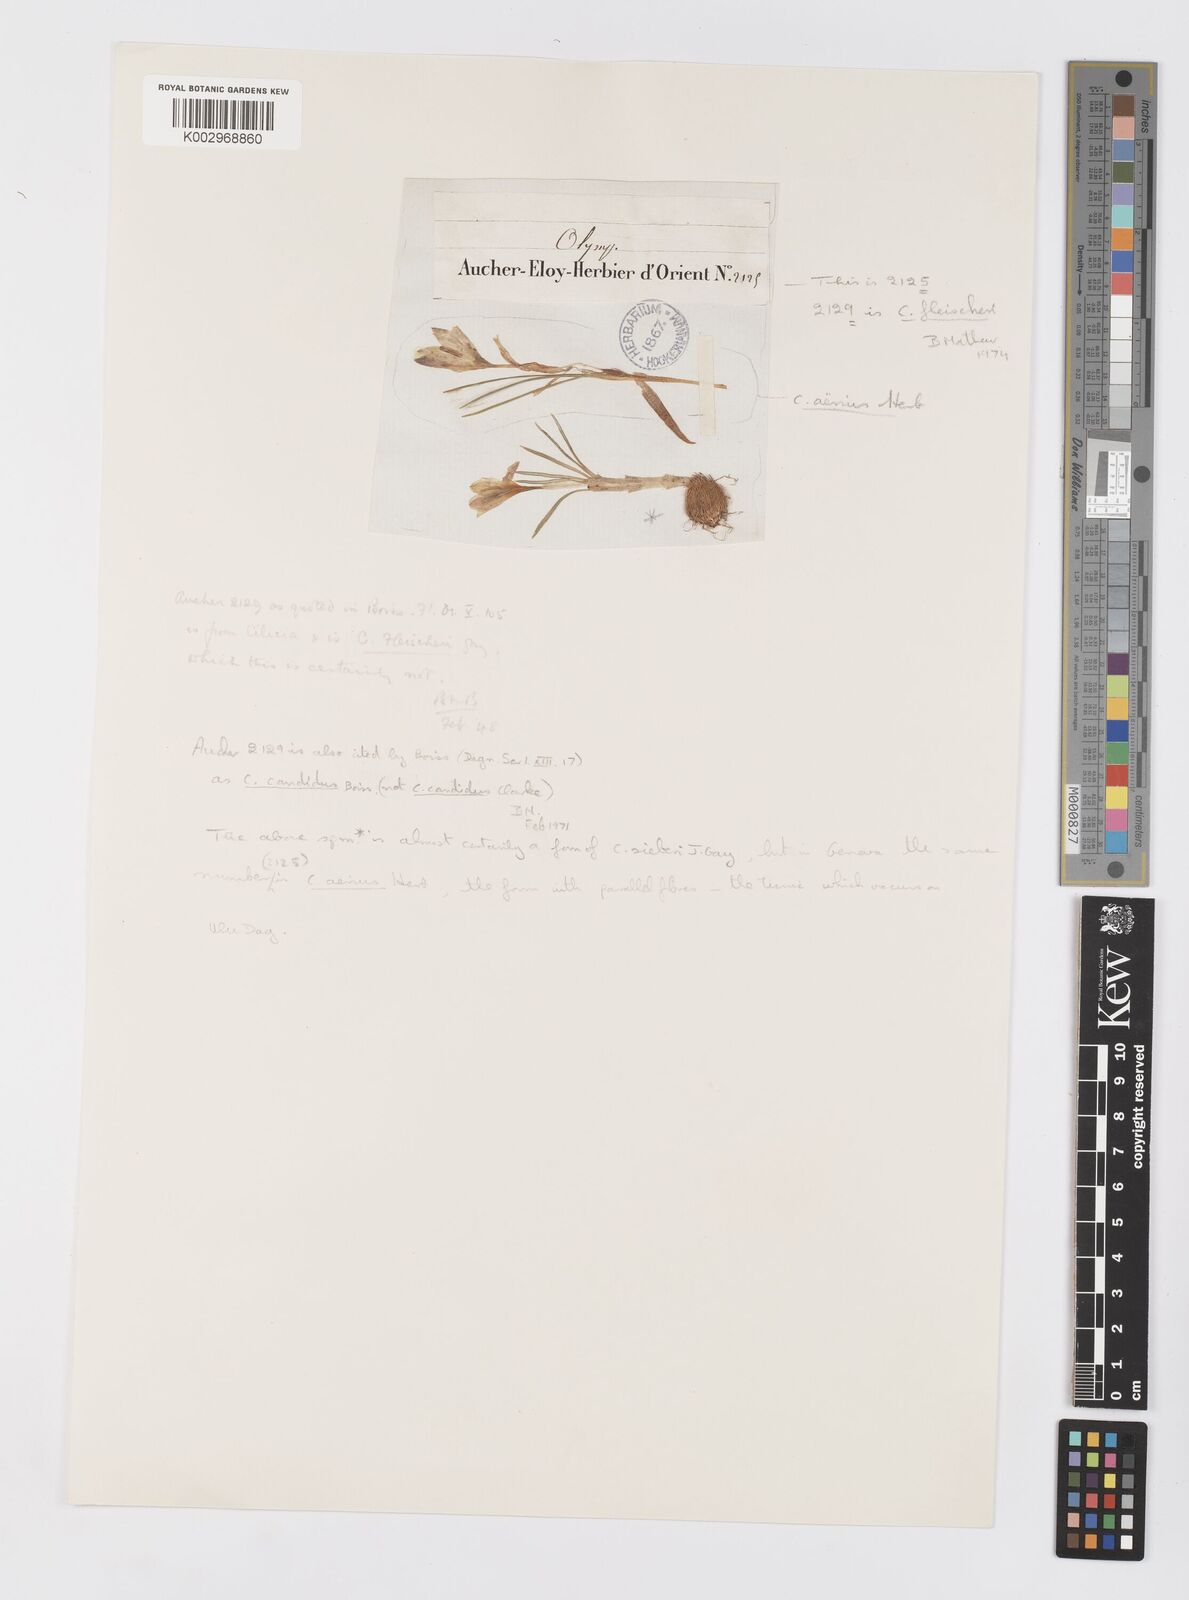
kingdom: Plantae
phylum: Tracheophyta
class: Liliopsida
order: Asparagales
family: Iridaceae
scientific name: Iridaceae
